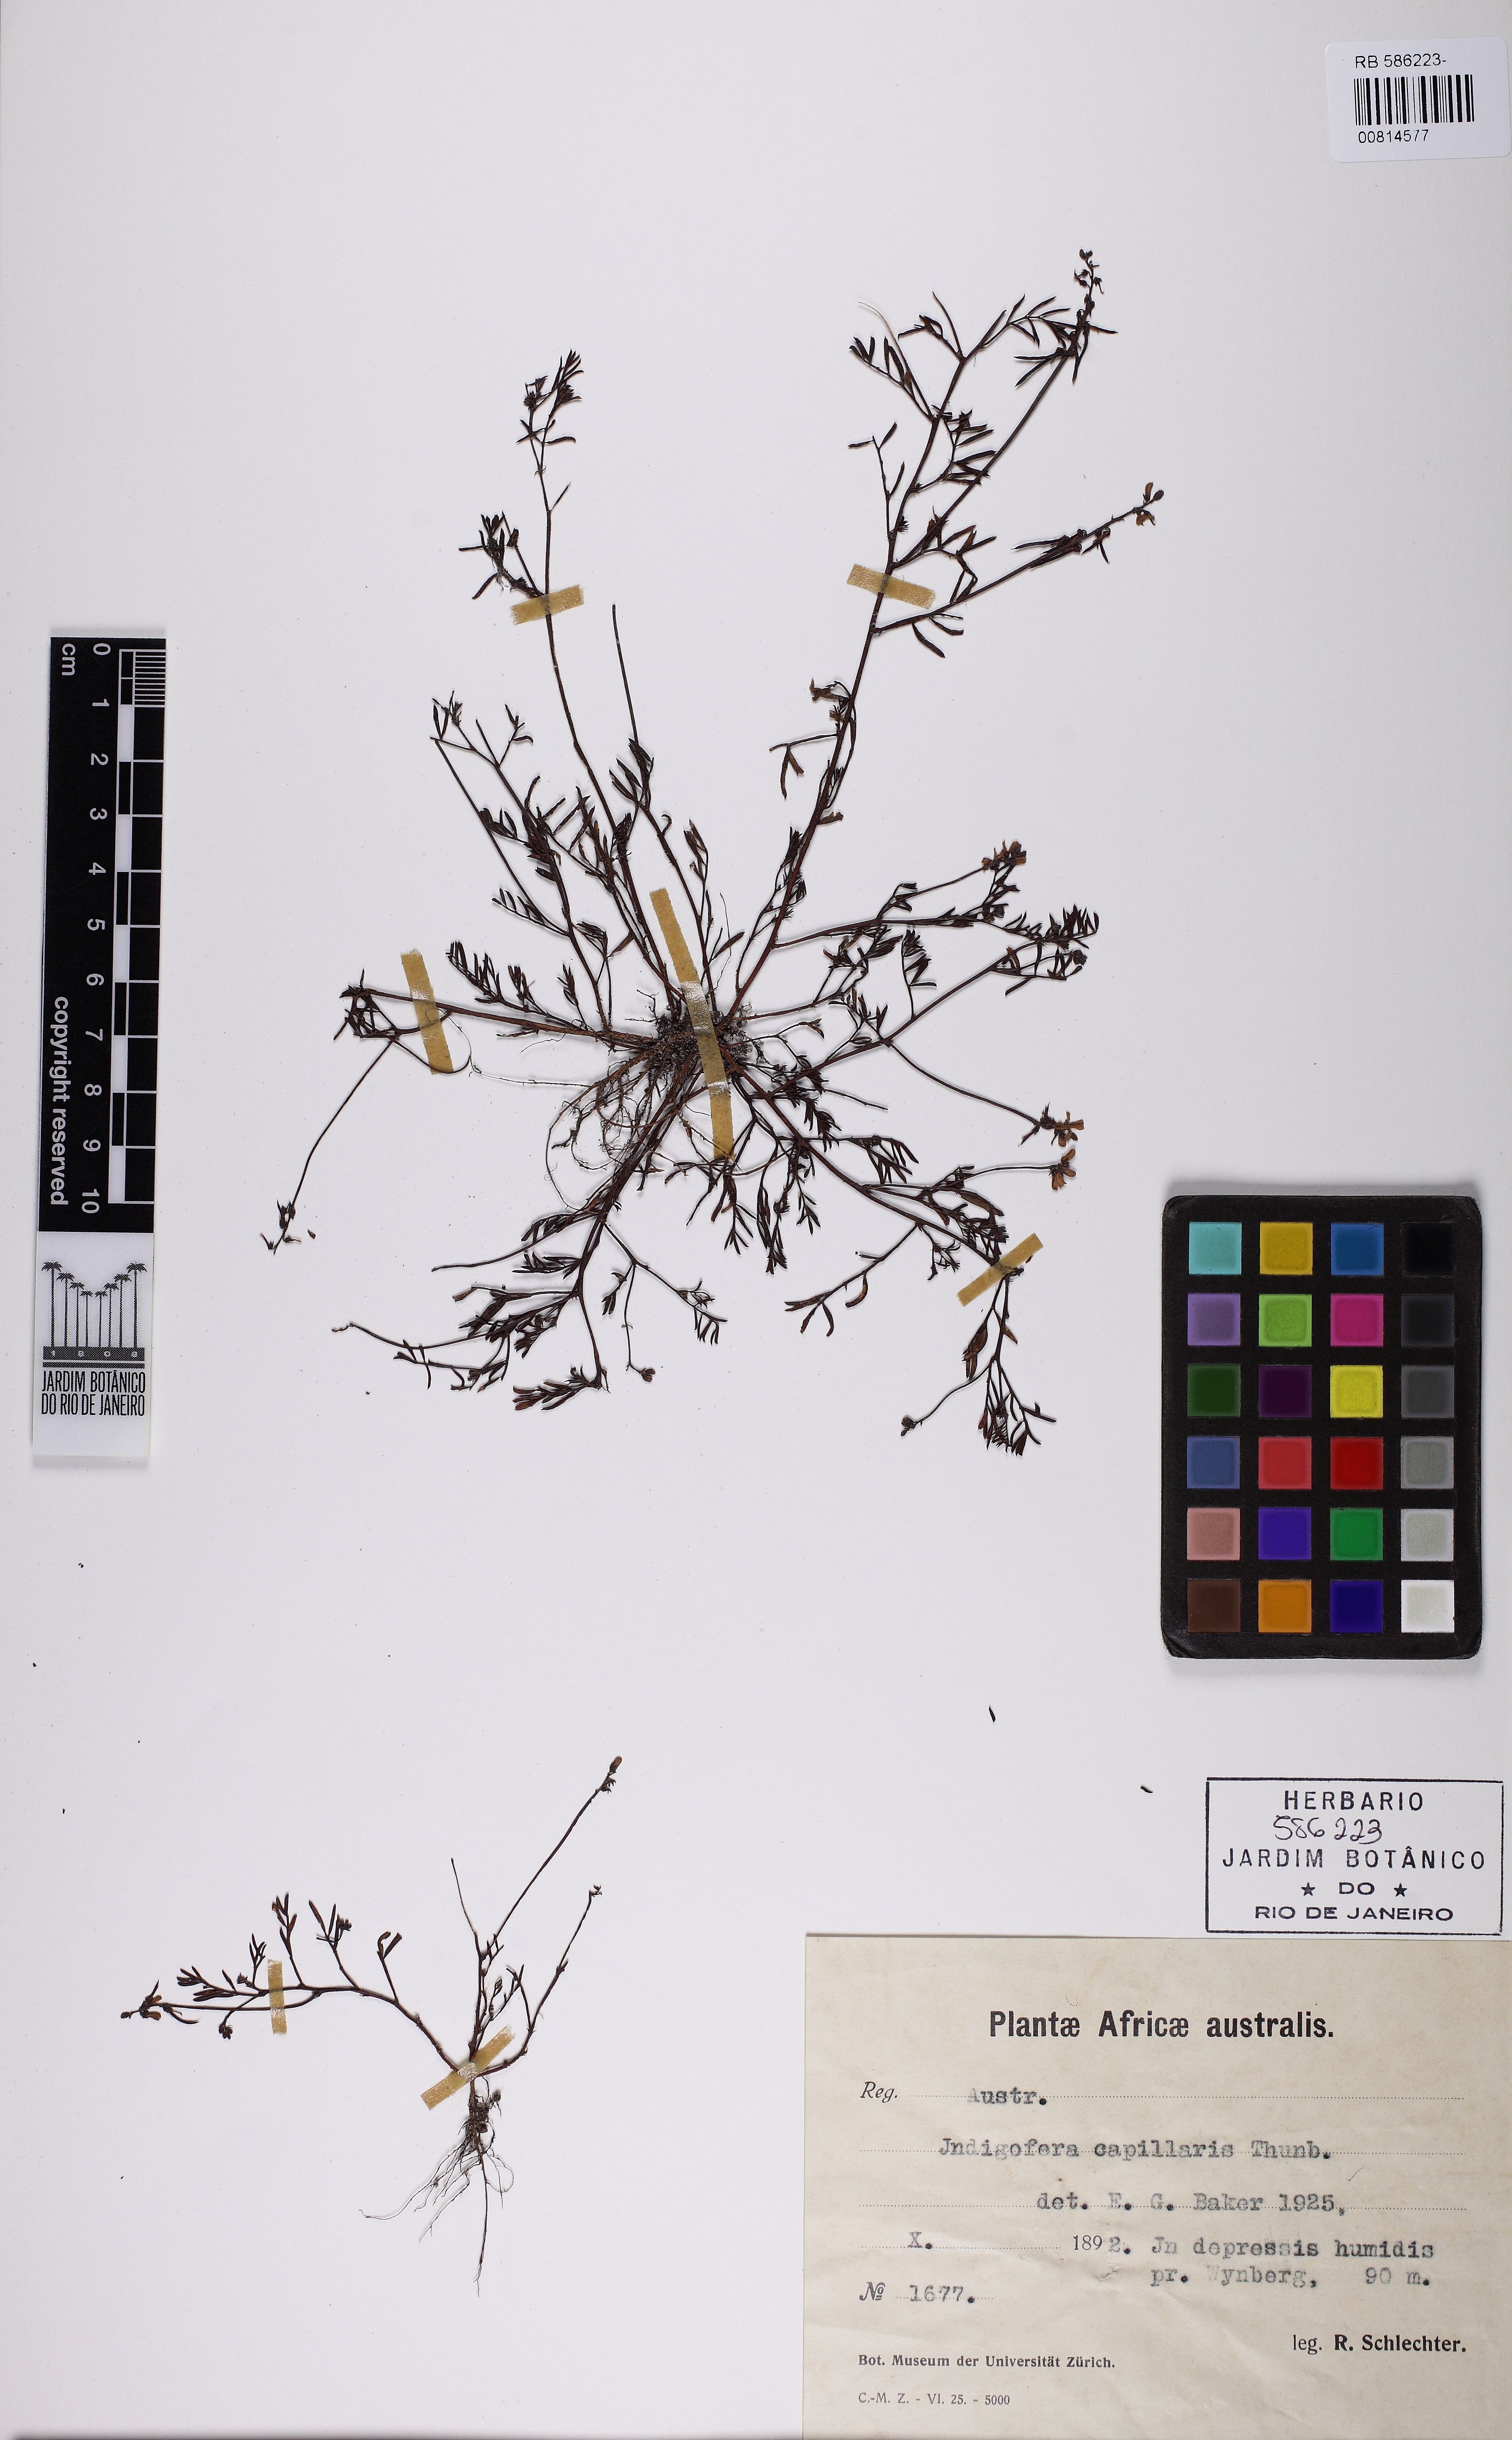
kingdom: Plantae
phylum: Tracheophyta
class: Magnoliopsida
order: Fabales
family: Fabaceae
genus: Indigofera
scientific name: Indigofera capillaris
